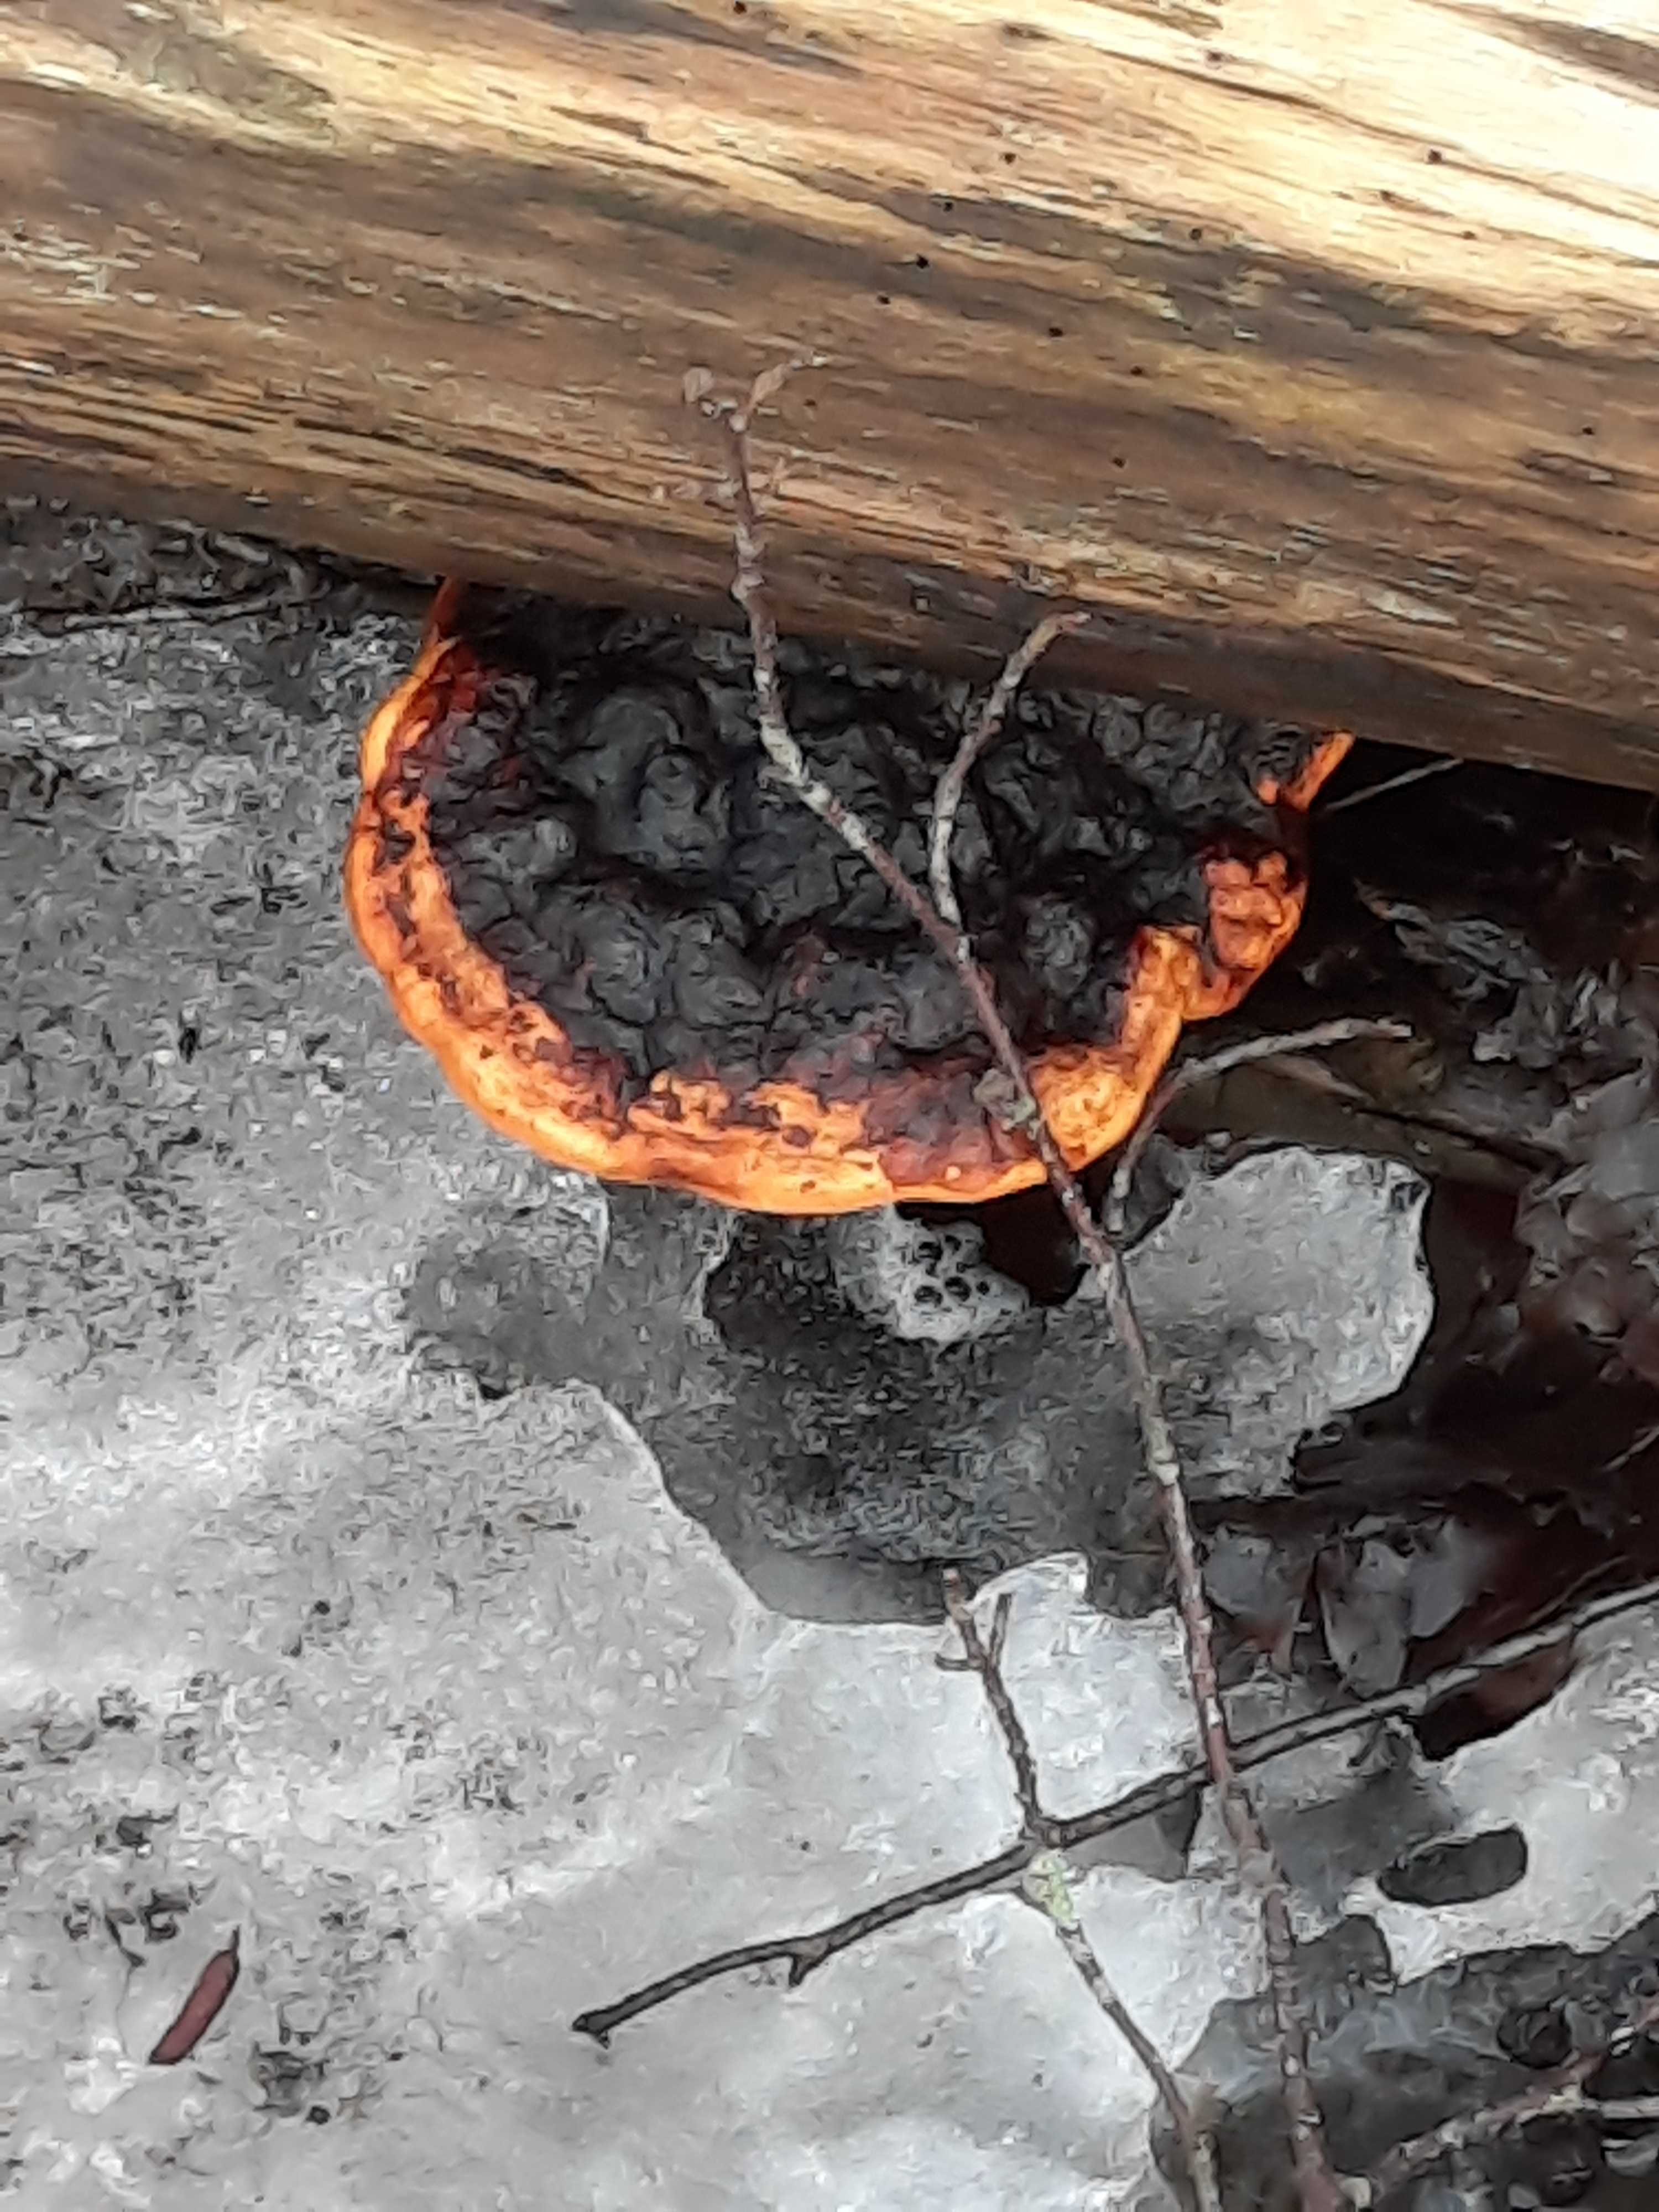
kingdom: Fungi
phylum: Basidiomycota
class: Agaricomycetes
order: Polyporales
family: Fomitopsidaceae
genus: Fomitopsis
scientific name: Fomitopsis pinicola
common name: randbæltet hovporesvamp
